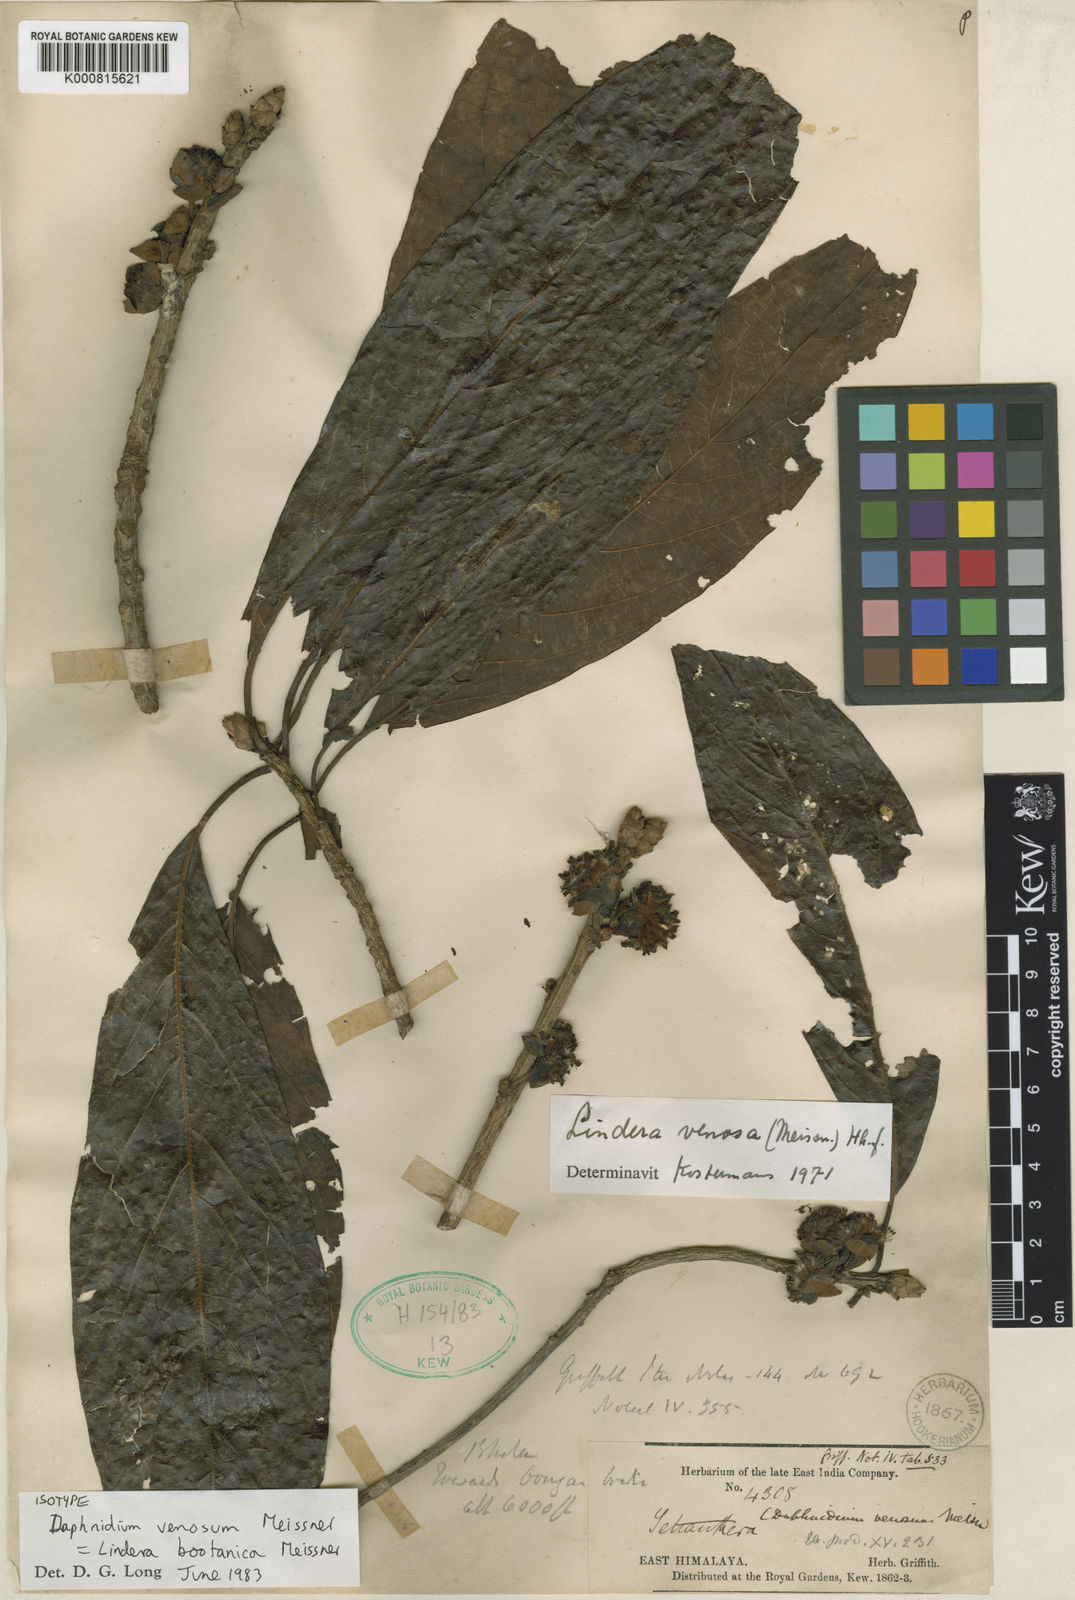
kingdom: Plantae
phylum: Tracheophyta
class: Magnoliopsida
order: Laurales
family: Lauraceae
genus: Lindera
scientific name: Lindera bootanica
